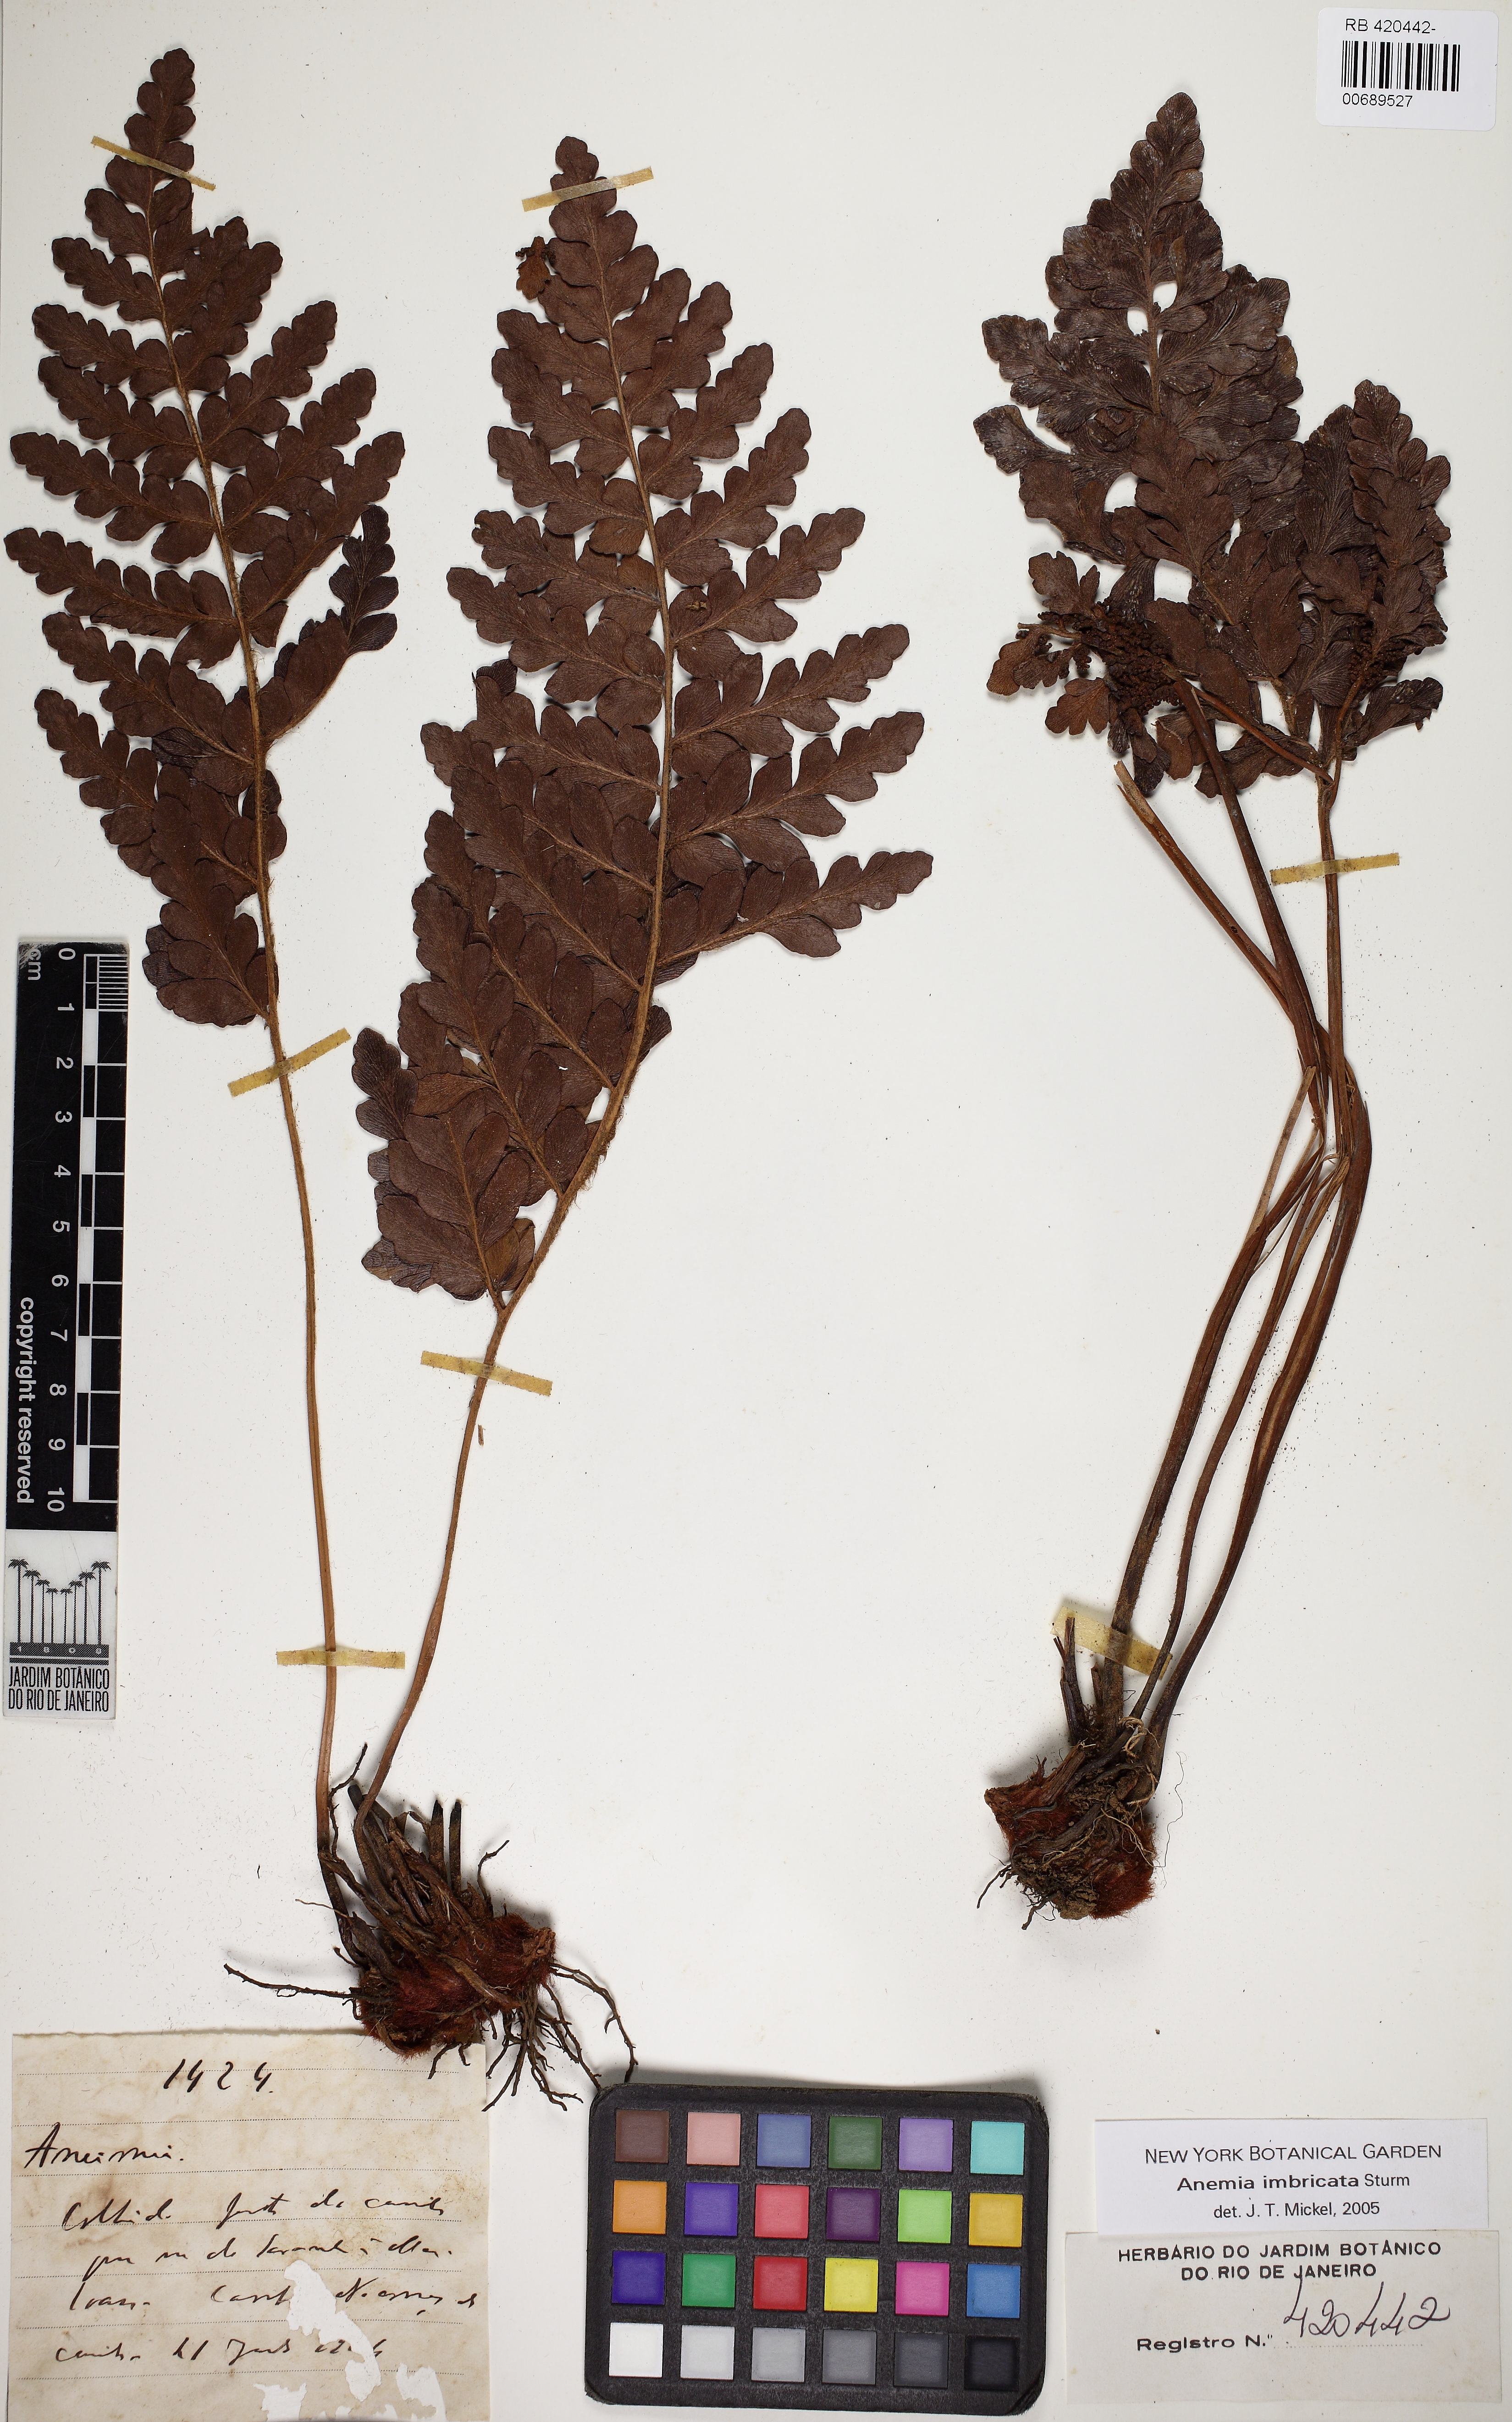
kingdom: Plantae
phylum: Tracheophyta
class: Polypodiopsida
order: Schizaeales
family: Anemiaceae
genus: Anemia
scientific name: Anemia imbricata
